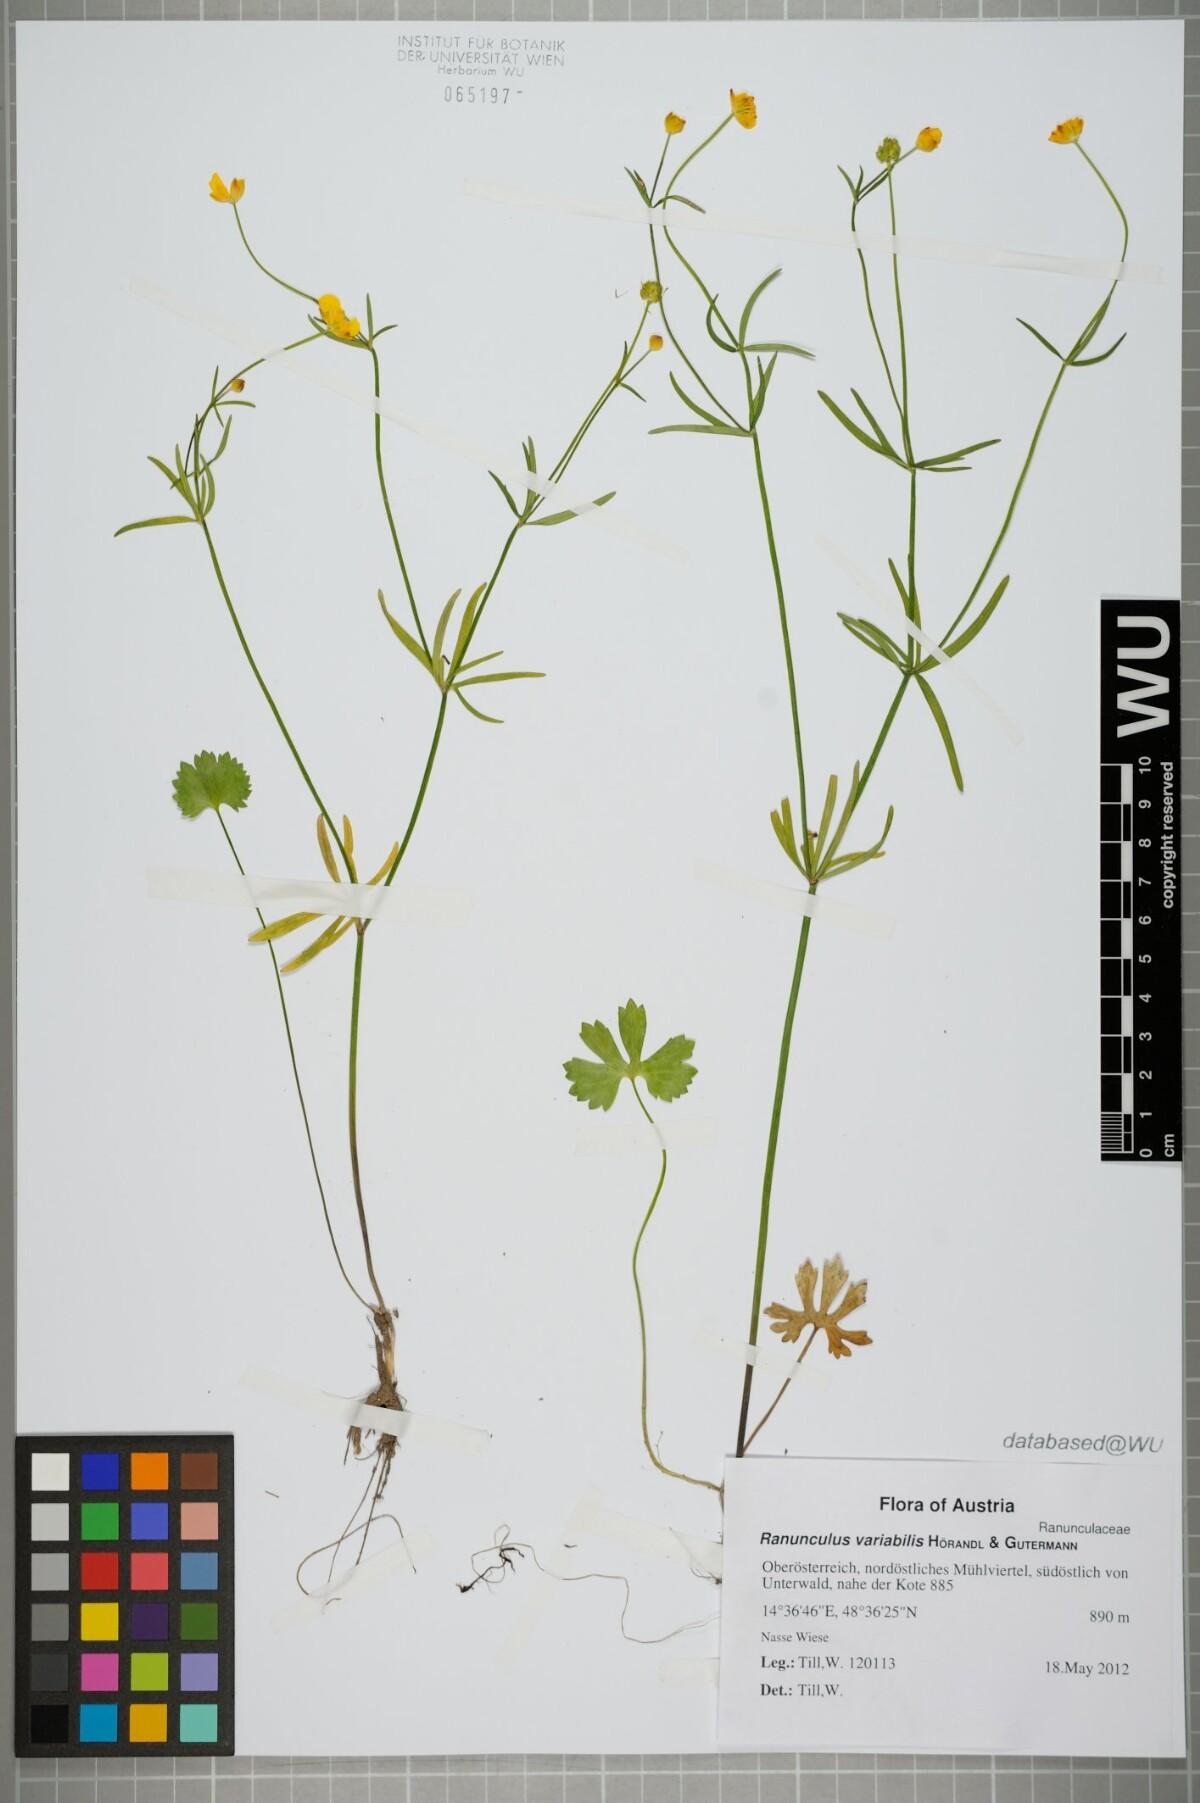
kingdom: Plantae
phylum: Tracheophyta
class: Magnoliopsida
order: Ranunculales
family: Ranunculaceae
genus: Ranunculus
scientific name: Ranunculus variabilis
